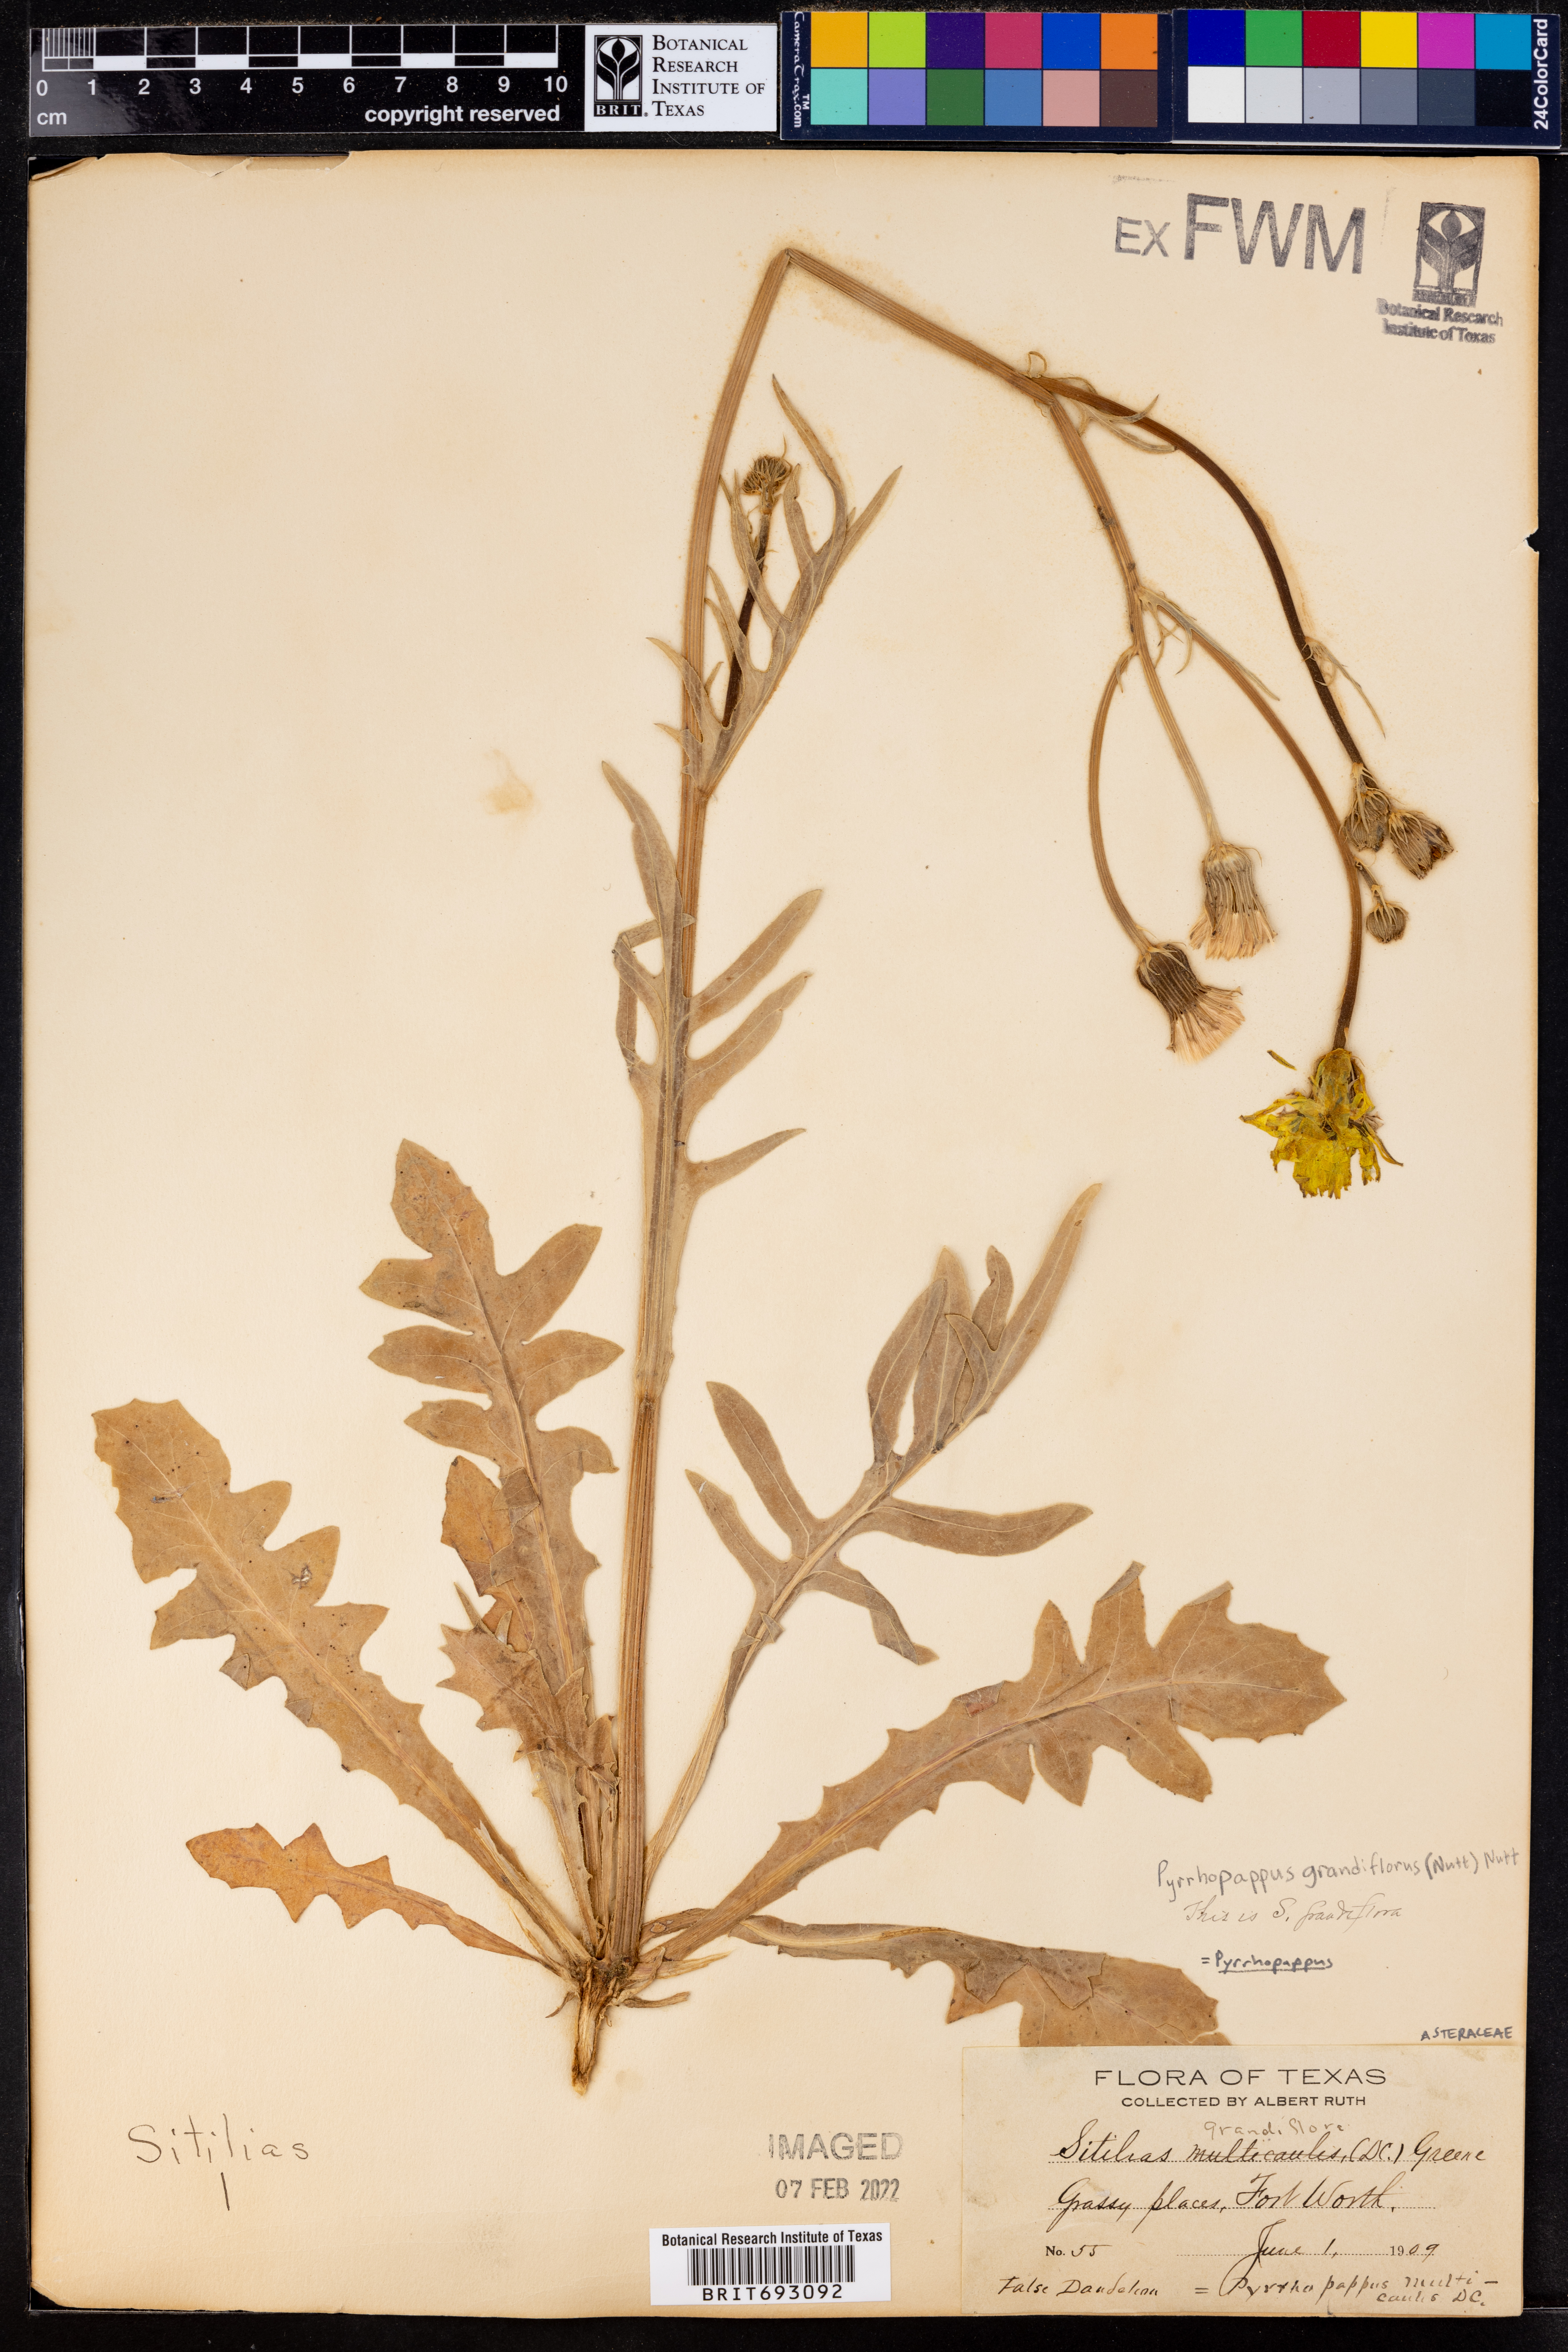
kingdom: Plantae
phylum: Tracheophyta
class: Magnoliopsida
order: Asterales
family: Asteraceae
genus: Pyrrhopappus
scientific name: Pyrrhopappus grandiflorus
